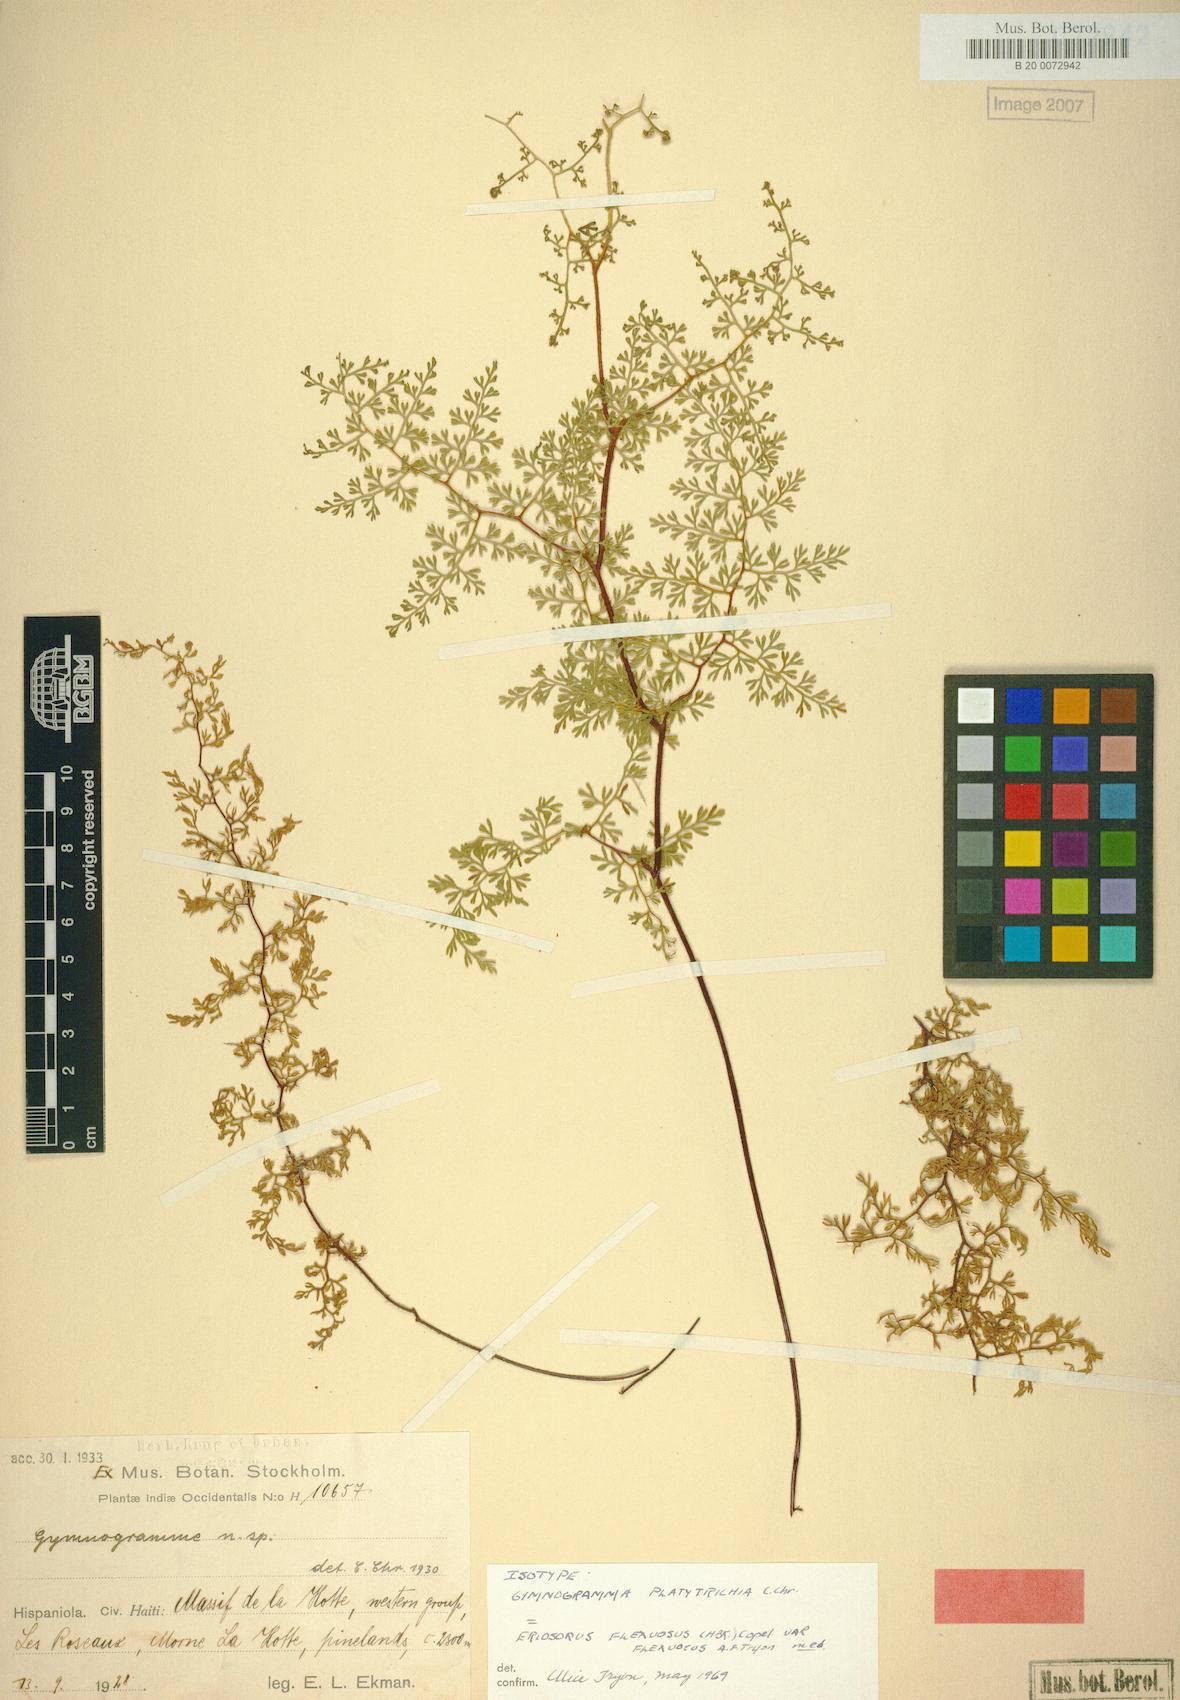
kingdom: Plantae
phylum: Tracheophyta
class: Polypodiopsida
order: Polypodiales
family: Pteridaceae
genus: Jamesonia
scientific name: Jamesonia flexuosa
